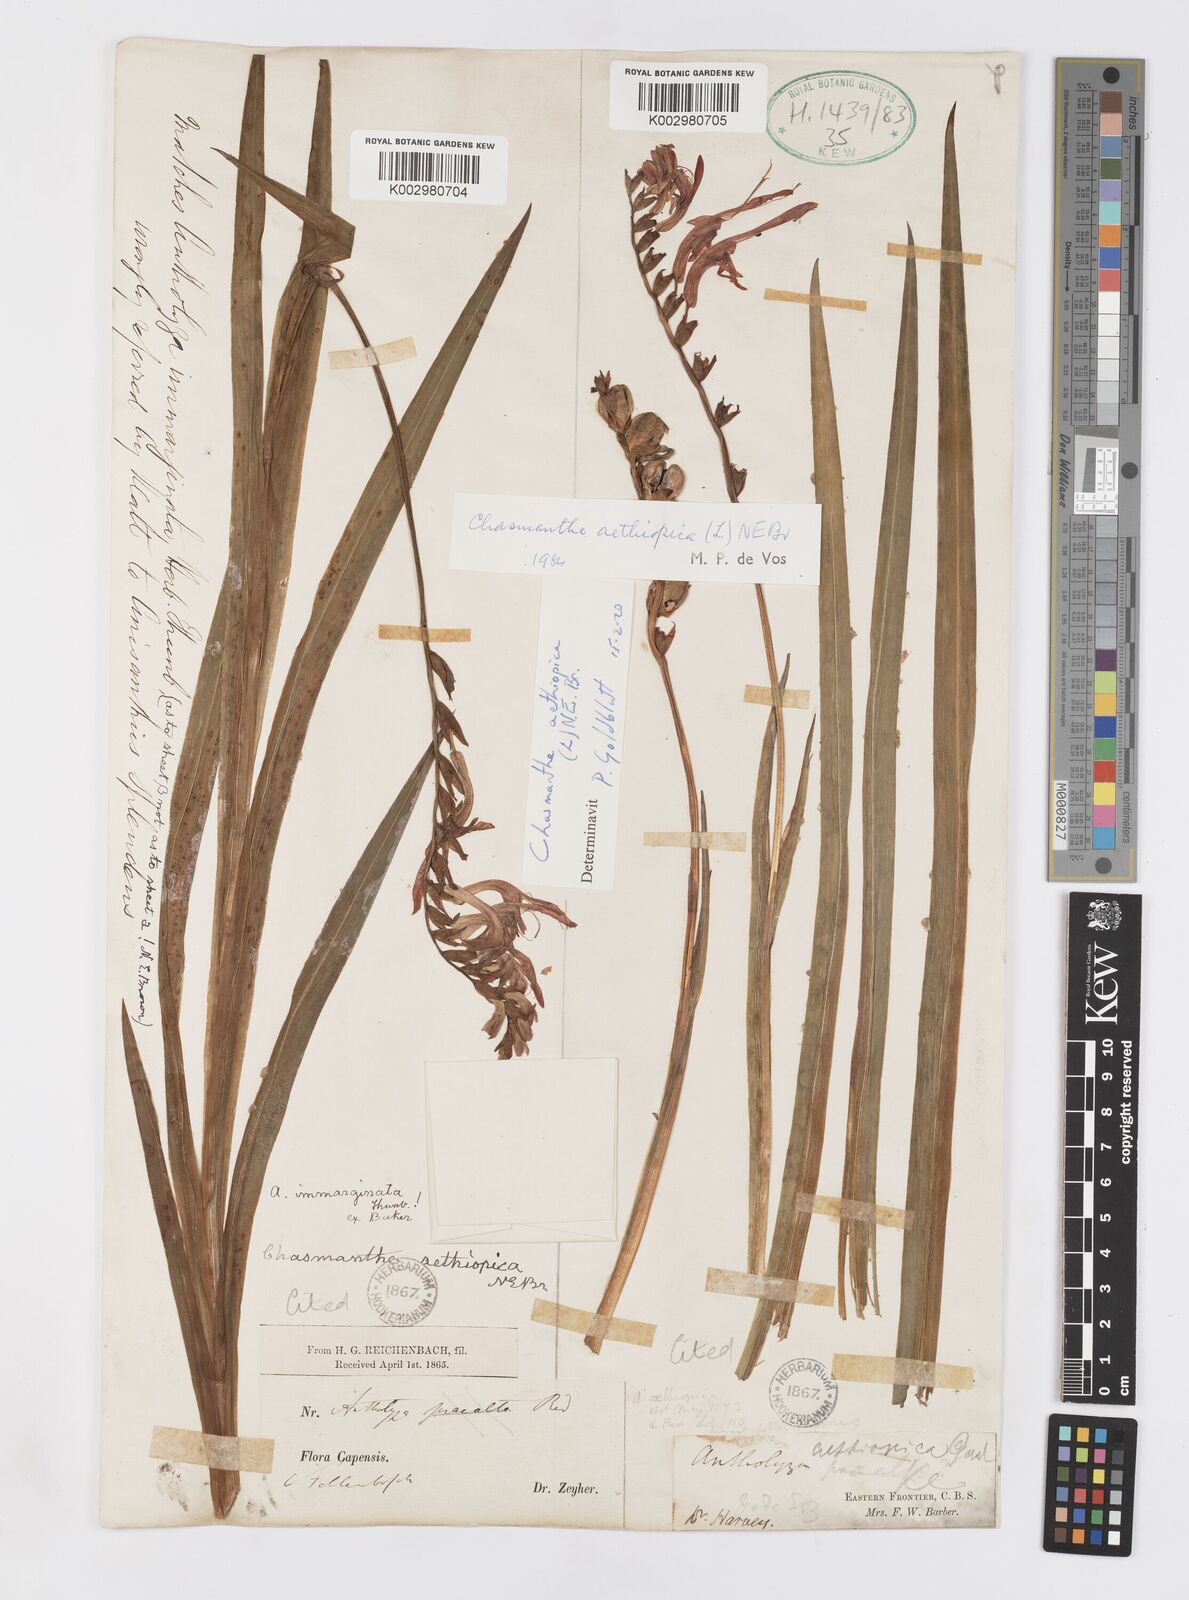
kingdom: Plantae
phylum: Tracheophyta
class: Liliopsida
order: Asparagales
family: Iridaceae
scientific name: Iridaceae
